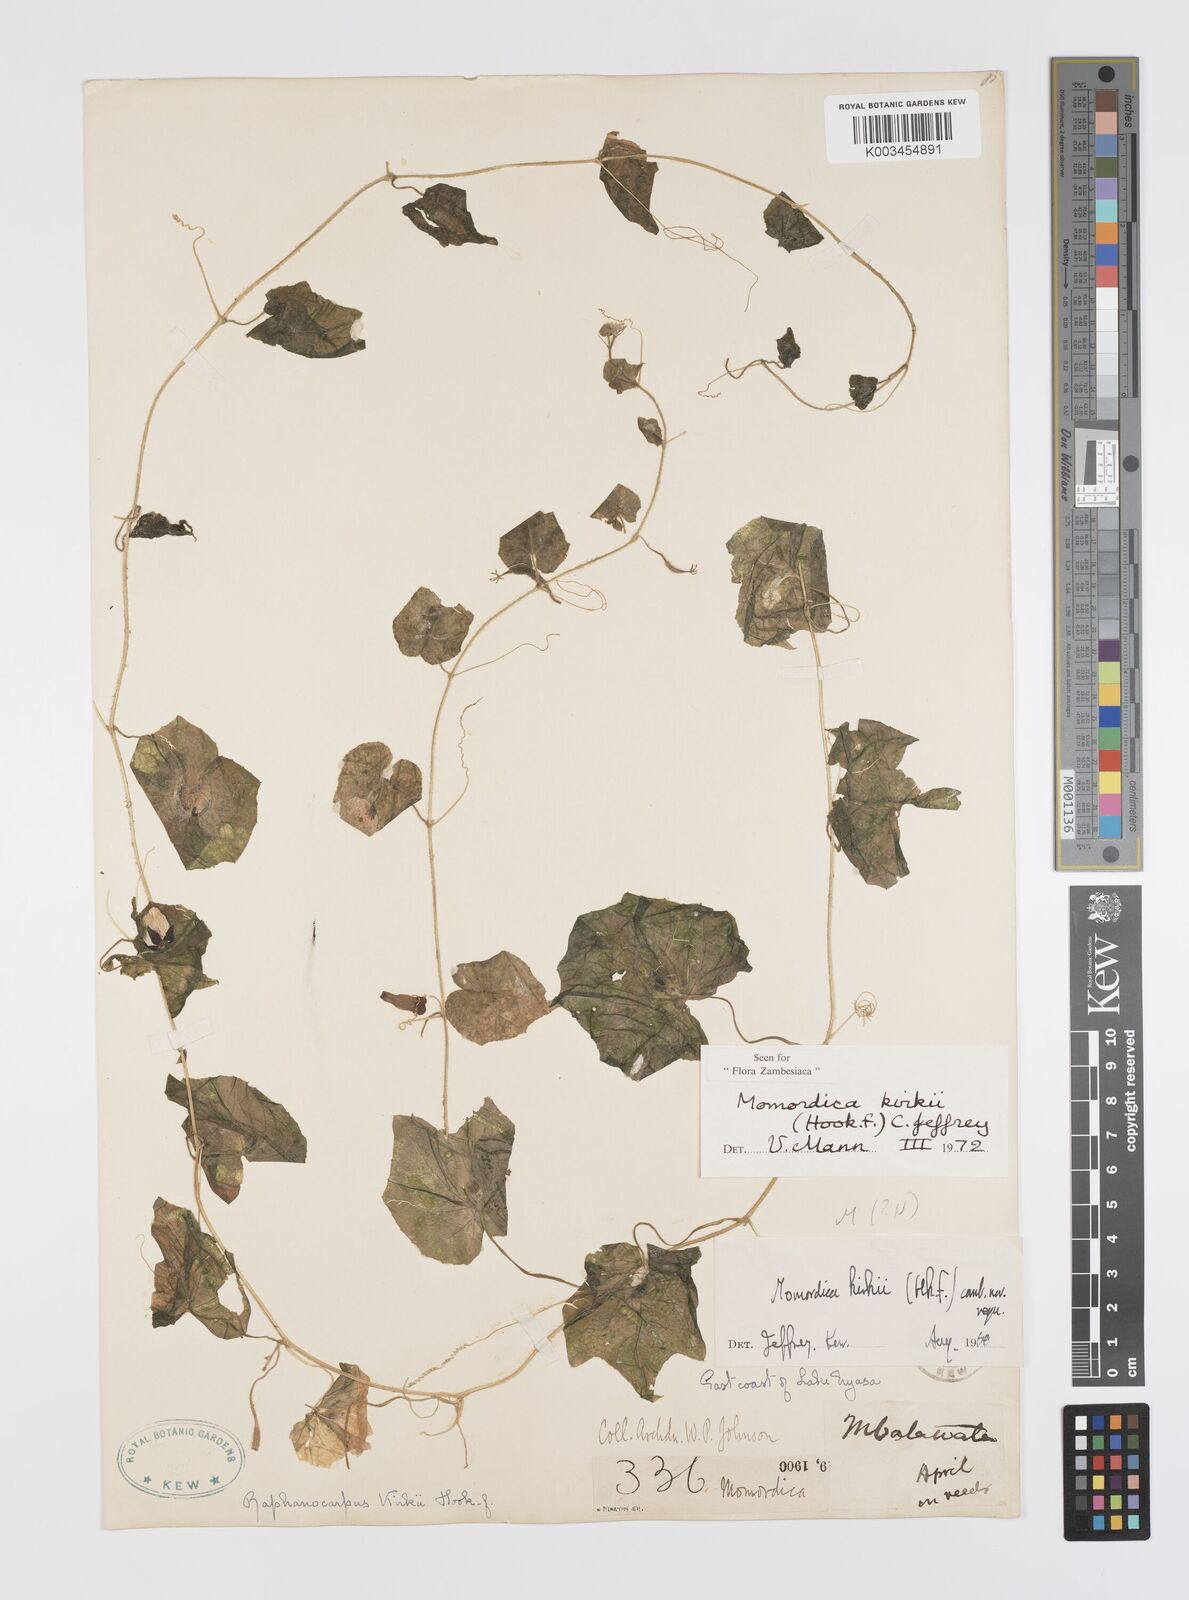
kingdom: Plantae
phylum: Tracheophyta
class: Magnoliopsida
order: Cucurbitales
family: Cucurbitaceae
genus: Momordica
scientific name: Momordica kirkii
